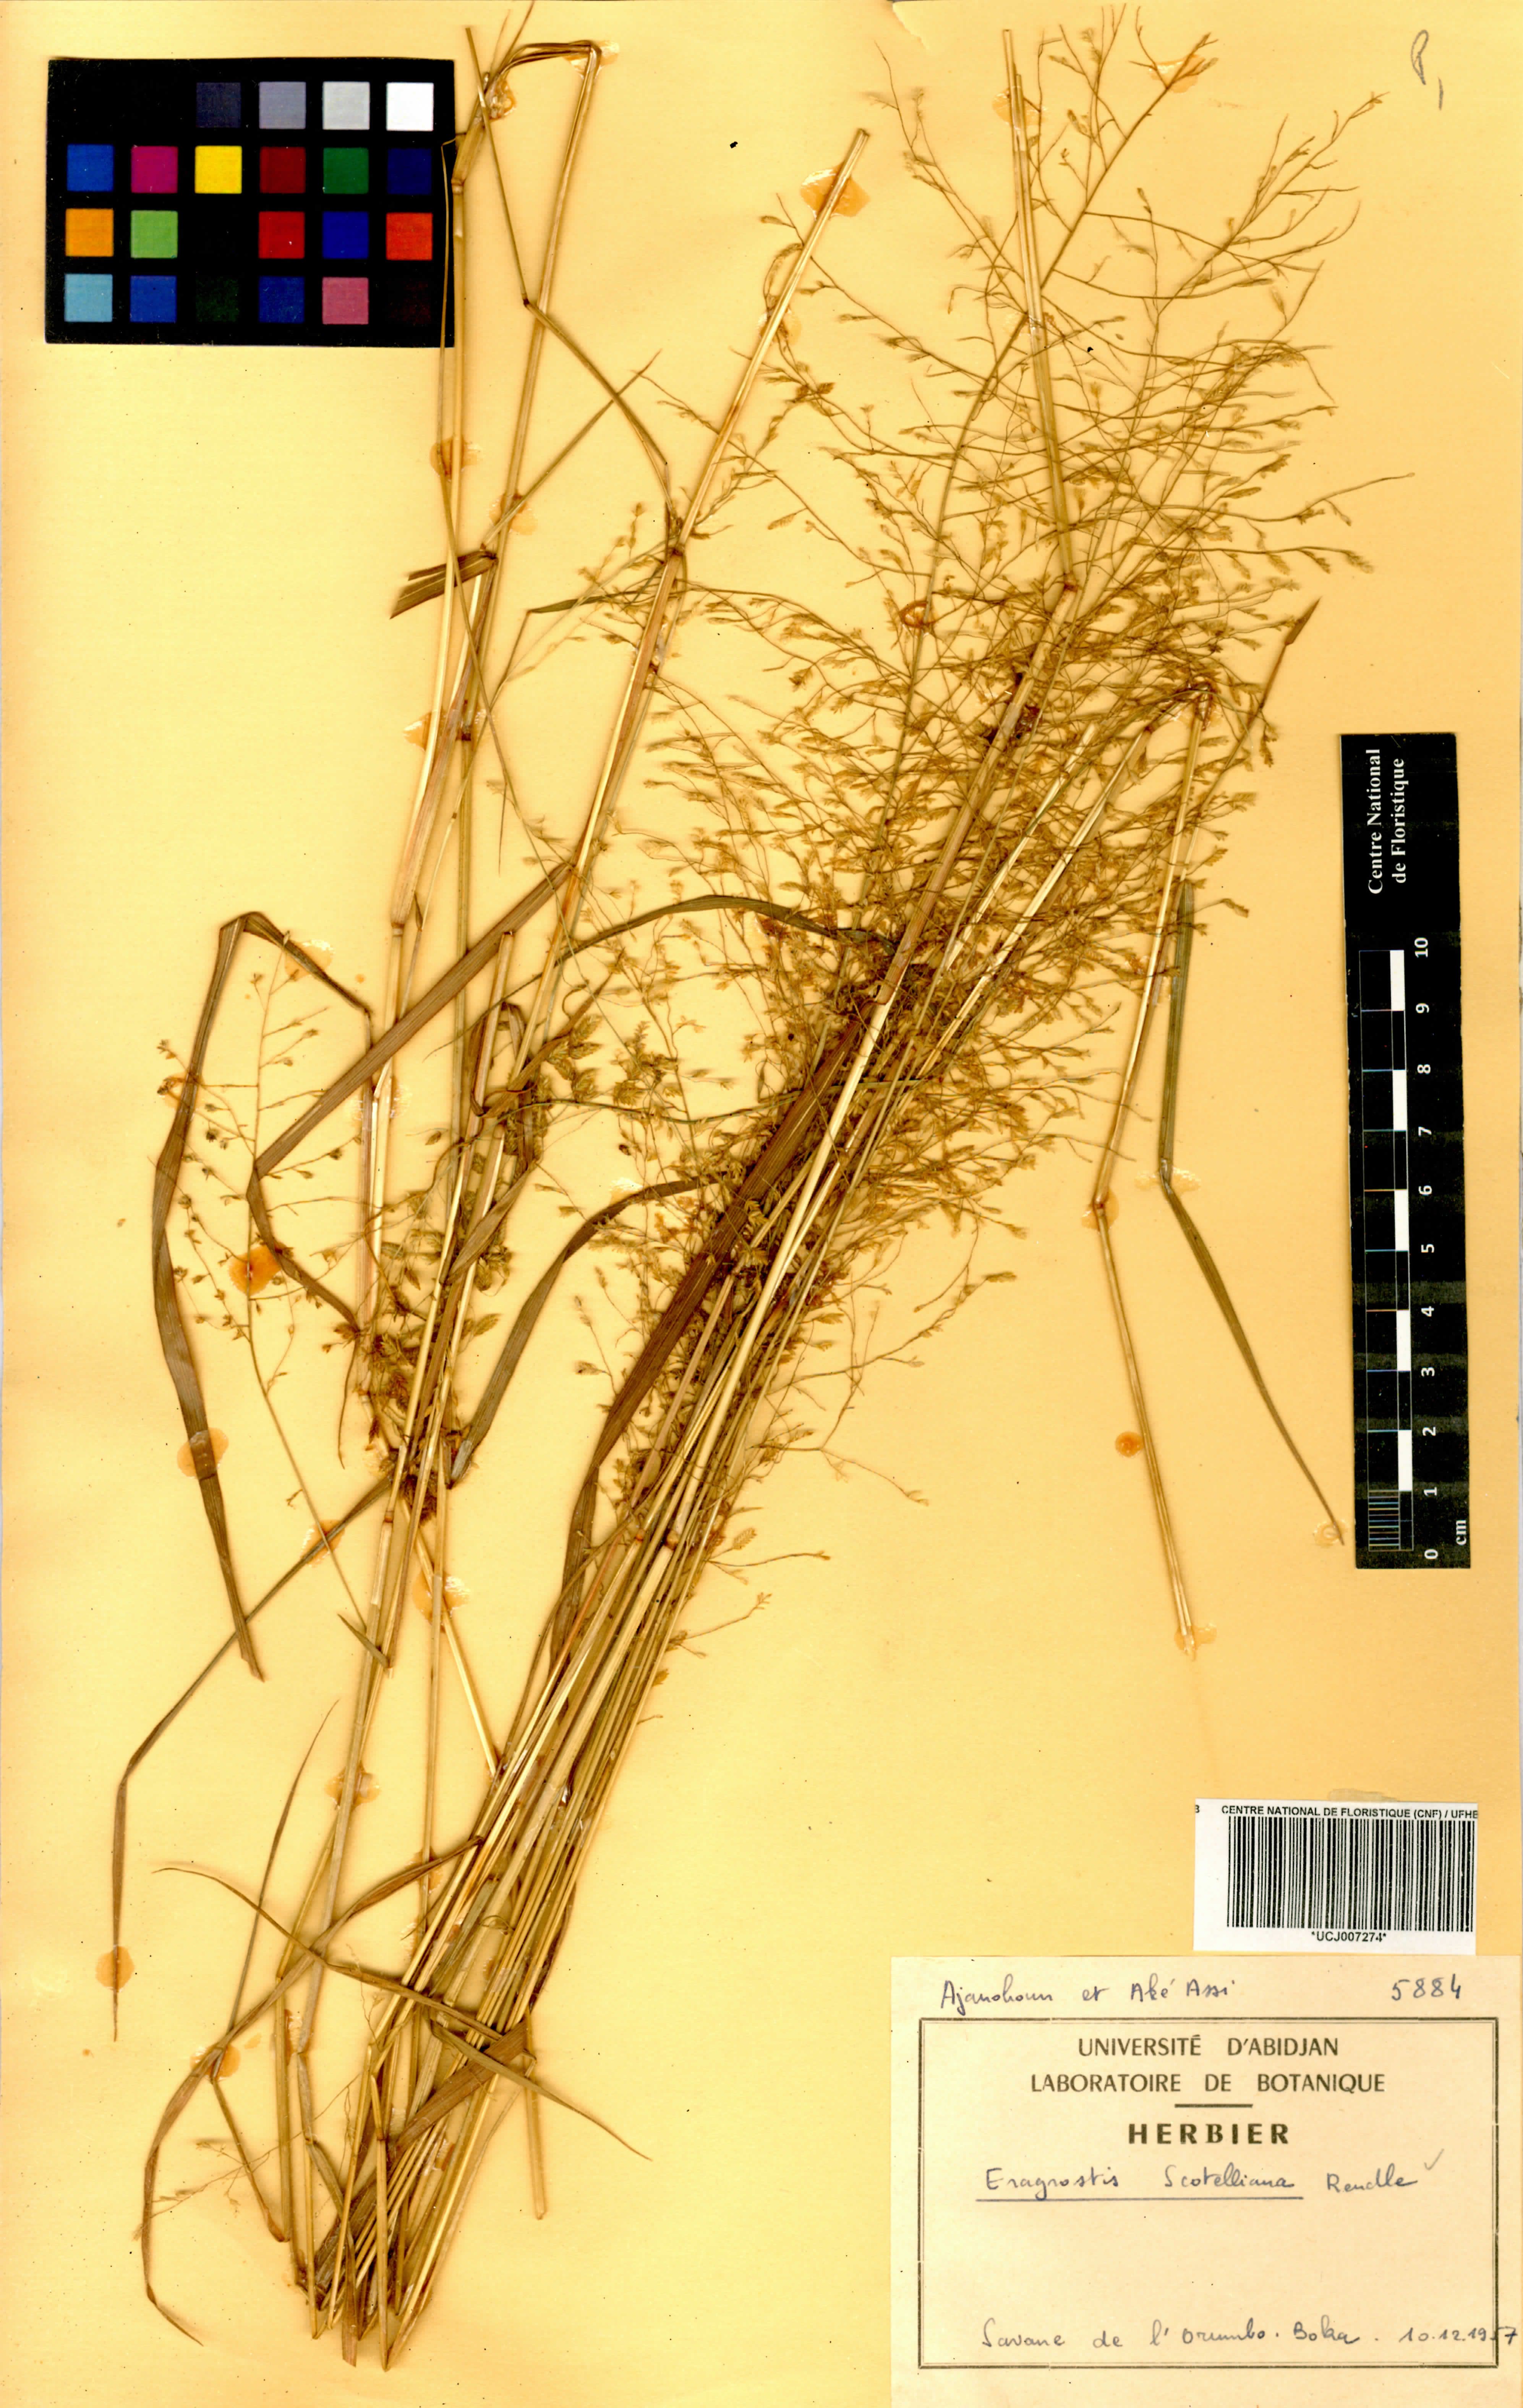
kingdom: Plantae
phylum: Tracheophyta
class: Liliopsida
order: Poales
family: Poaceae
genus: Eragrostis
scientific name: Eragrostis scotelliana
